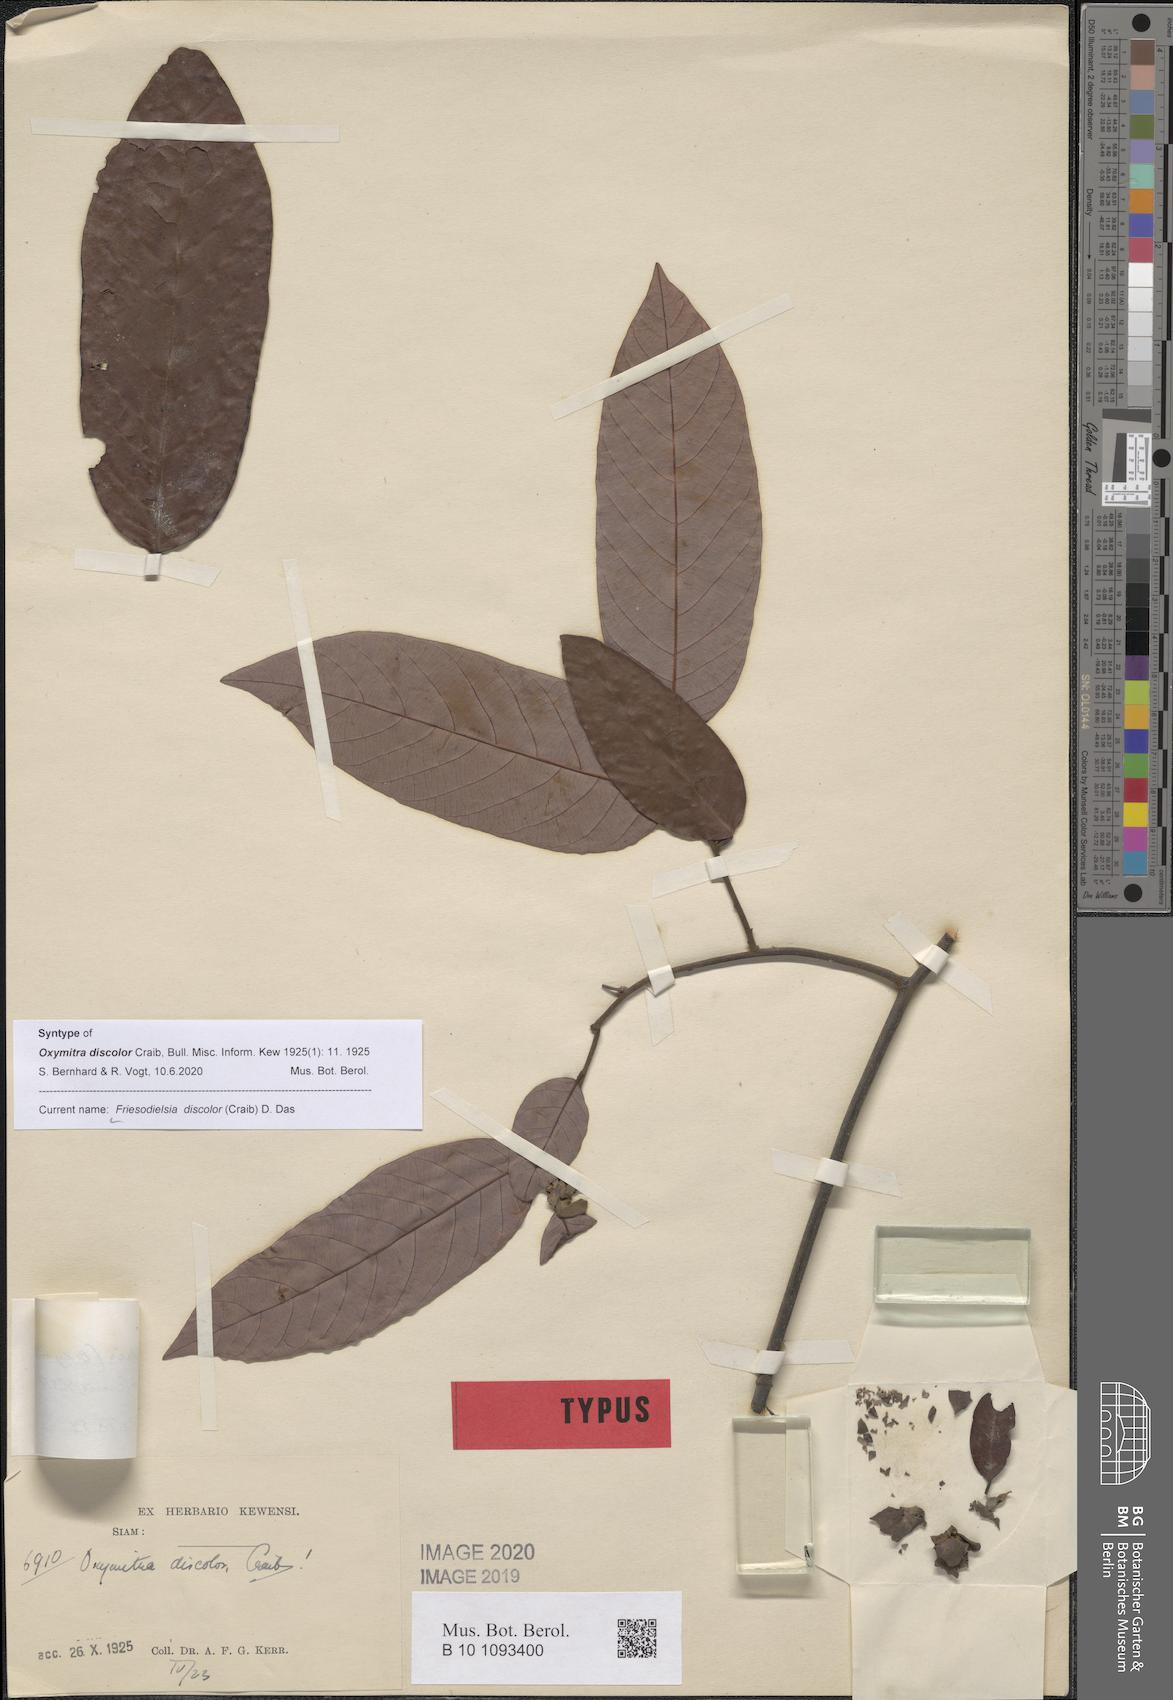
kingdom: Plantae
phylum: Tracheophyta
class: Magnoliopsida
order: Magnoliales
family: Annonaceae
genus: Friesodielsia
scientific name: Friesodielsia discolor
